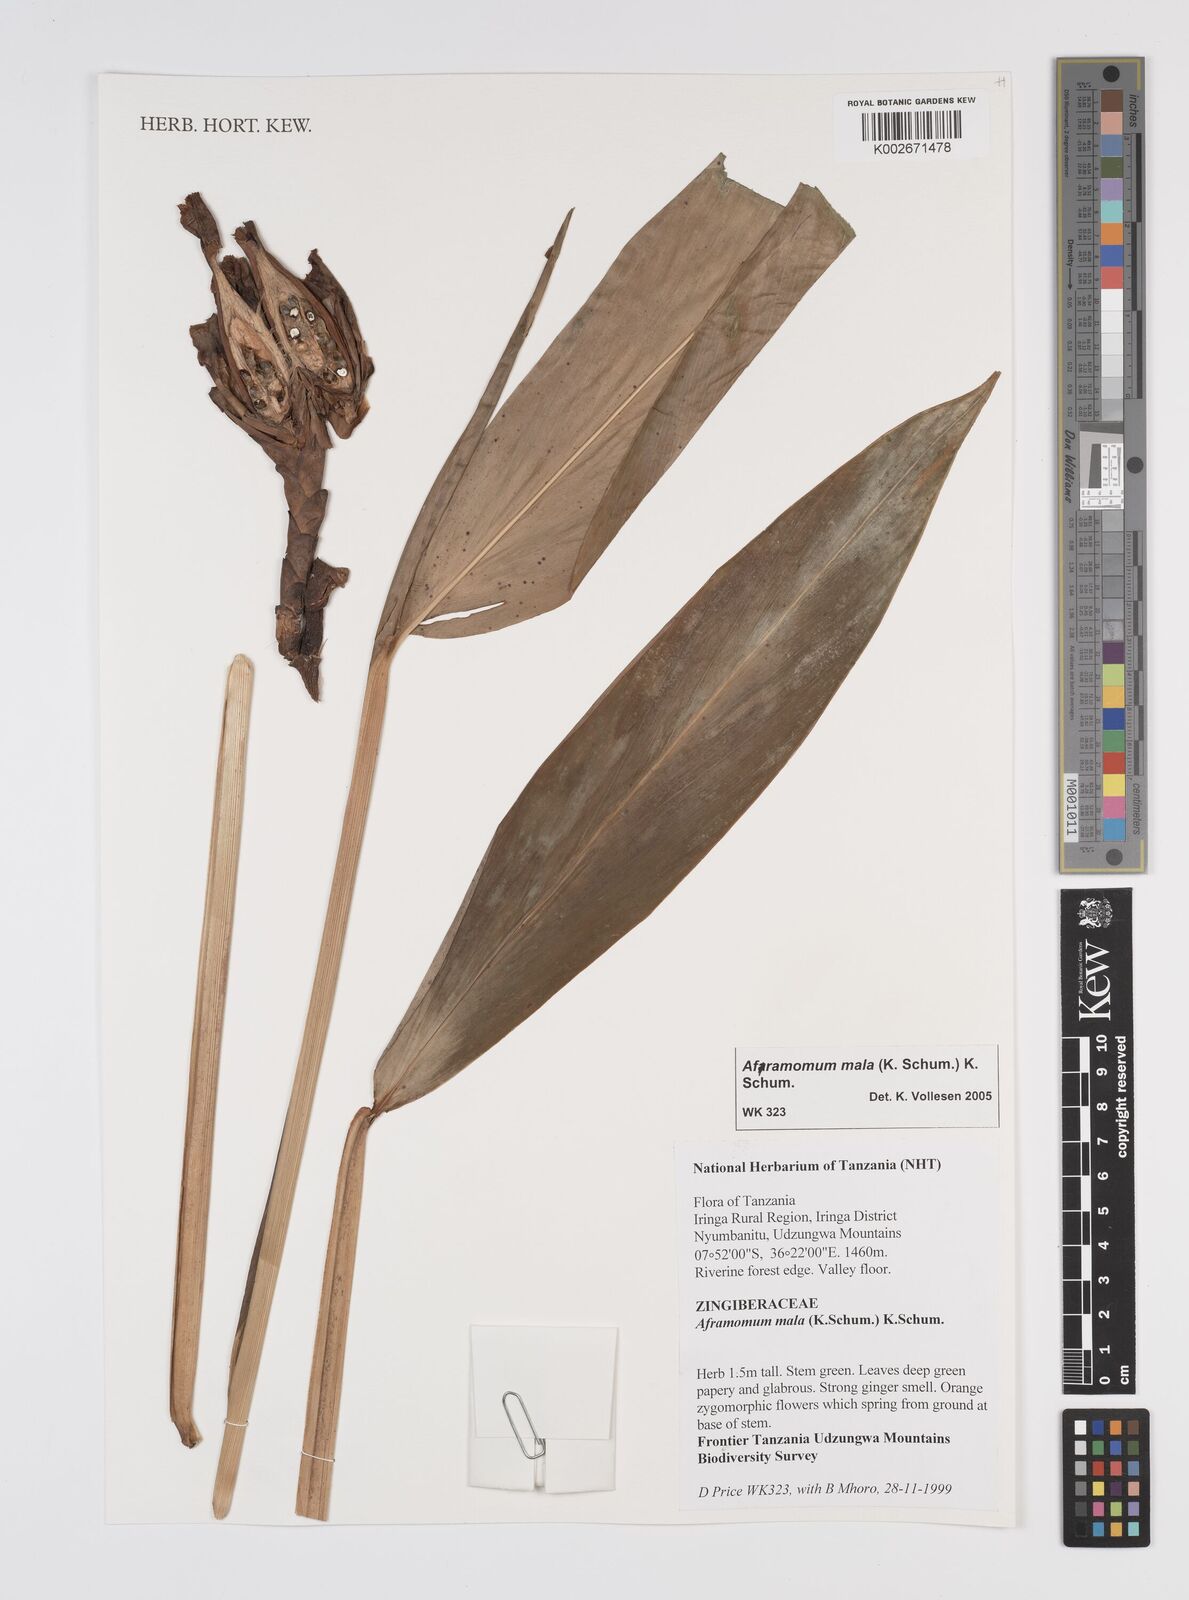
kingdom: Plantae
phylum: Tracheophyta
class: Liliopsida
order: Zingiberales
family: Zingiberaceae
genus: Aframomum
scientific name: Aframomum mala
